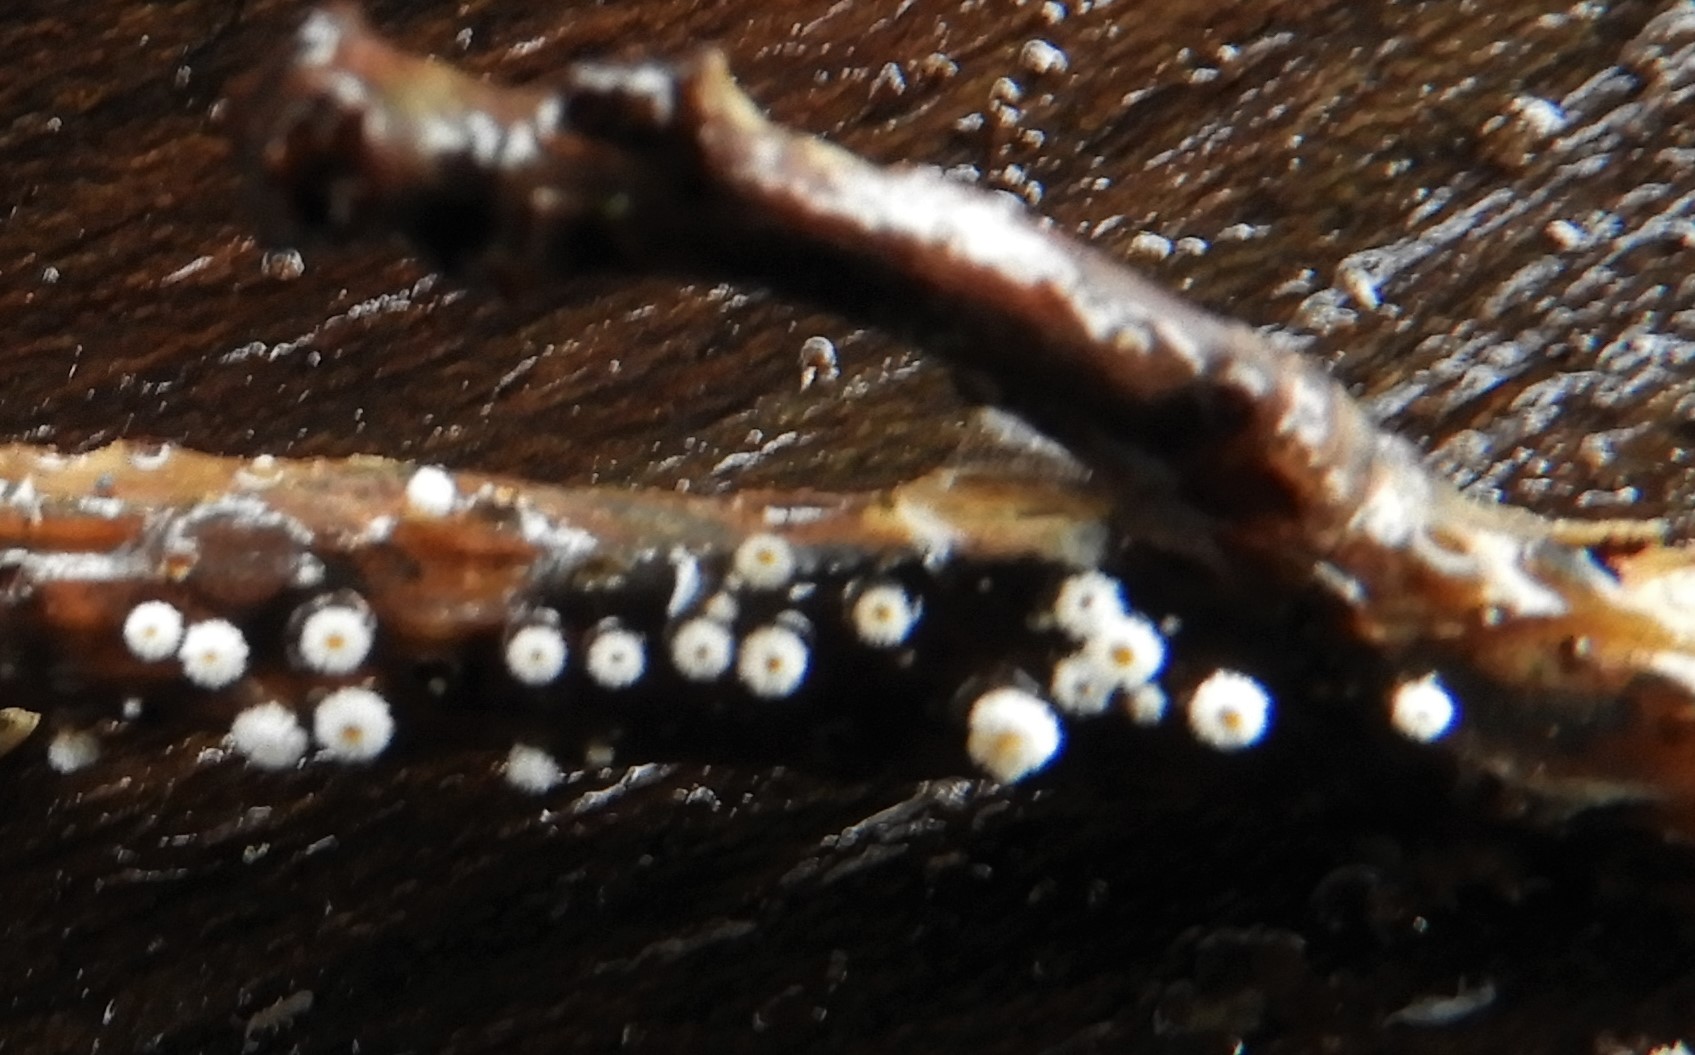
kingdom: Fungi
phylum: Ascomycota
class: Leotiomycetes
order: Helotiales
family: Lachnaceae
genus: Capitotricha
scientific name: Capitotricha bicolor
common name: prægtig frynseskive
